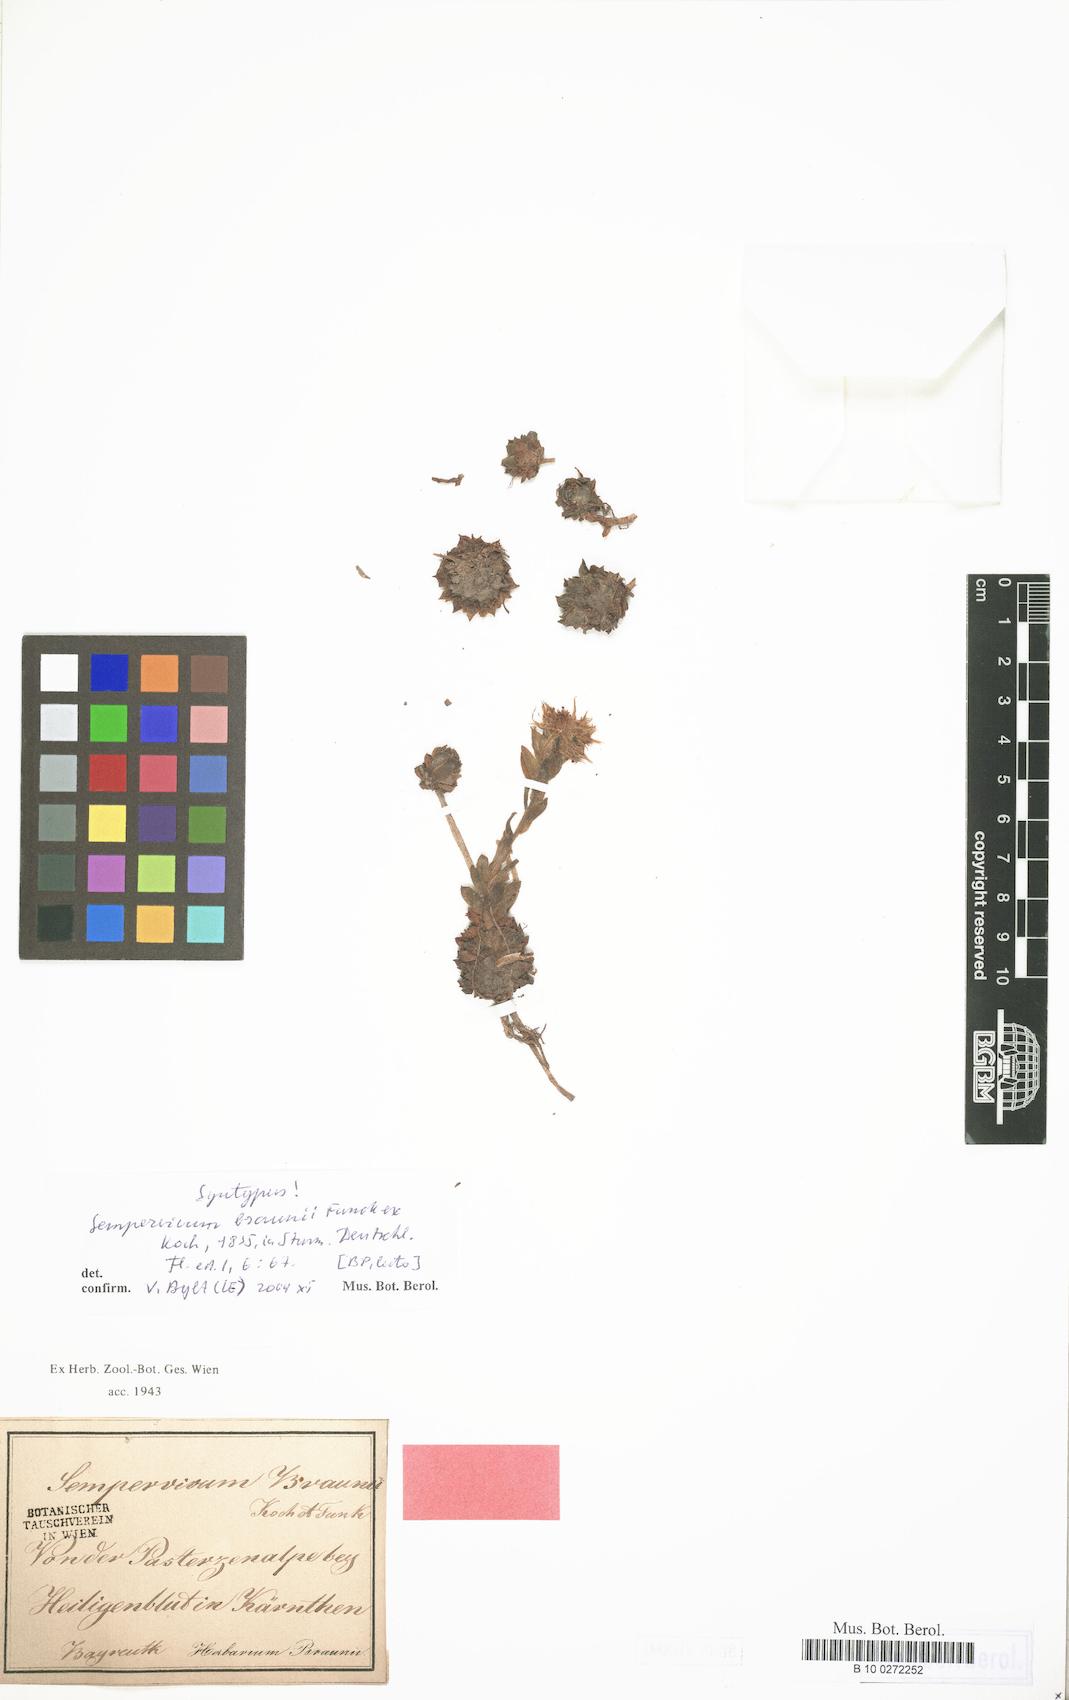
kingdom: Plantae
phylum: Tracheophyta
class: Magnoliopsida
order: Saxifragales
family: Crassulaceae
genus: Sempervivum
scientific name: Sempervivum montanum
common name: Mountain house-leek
